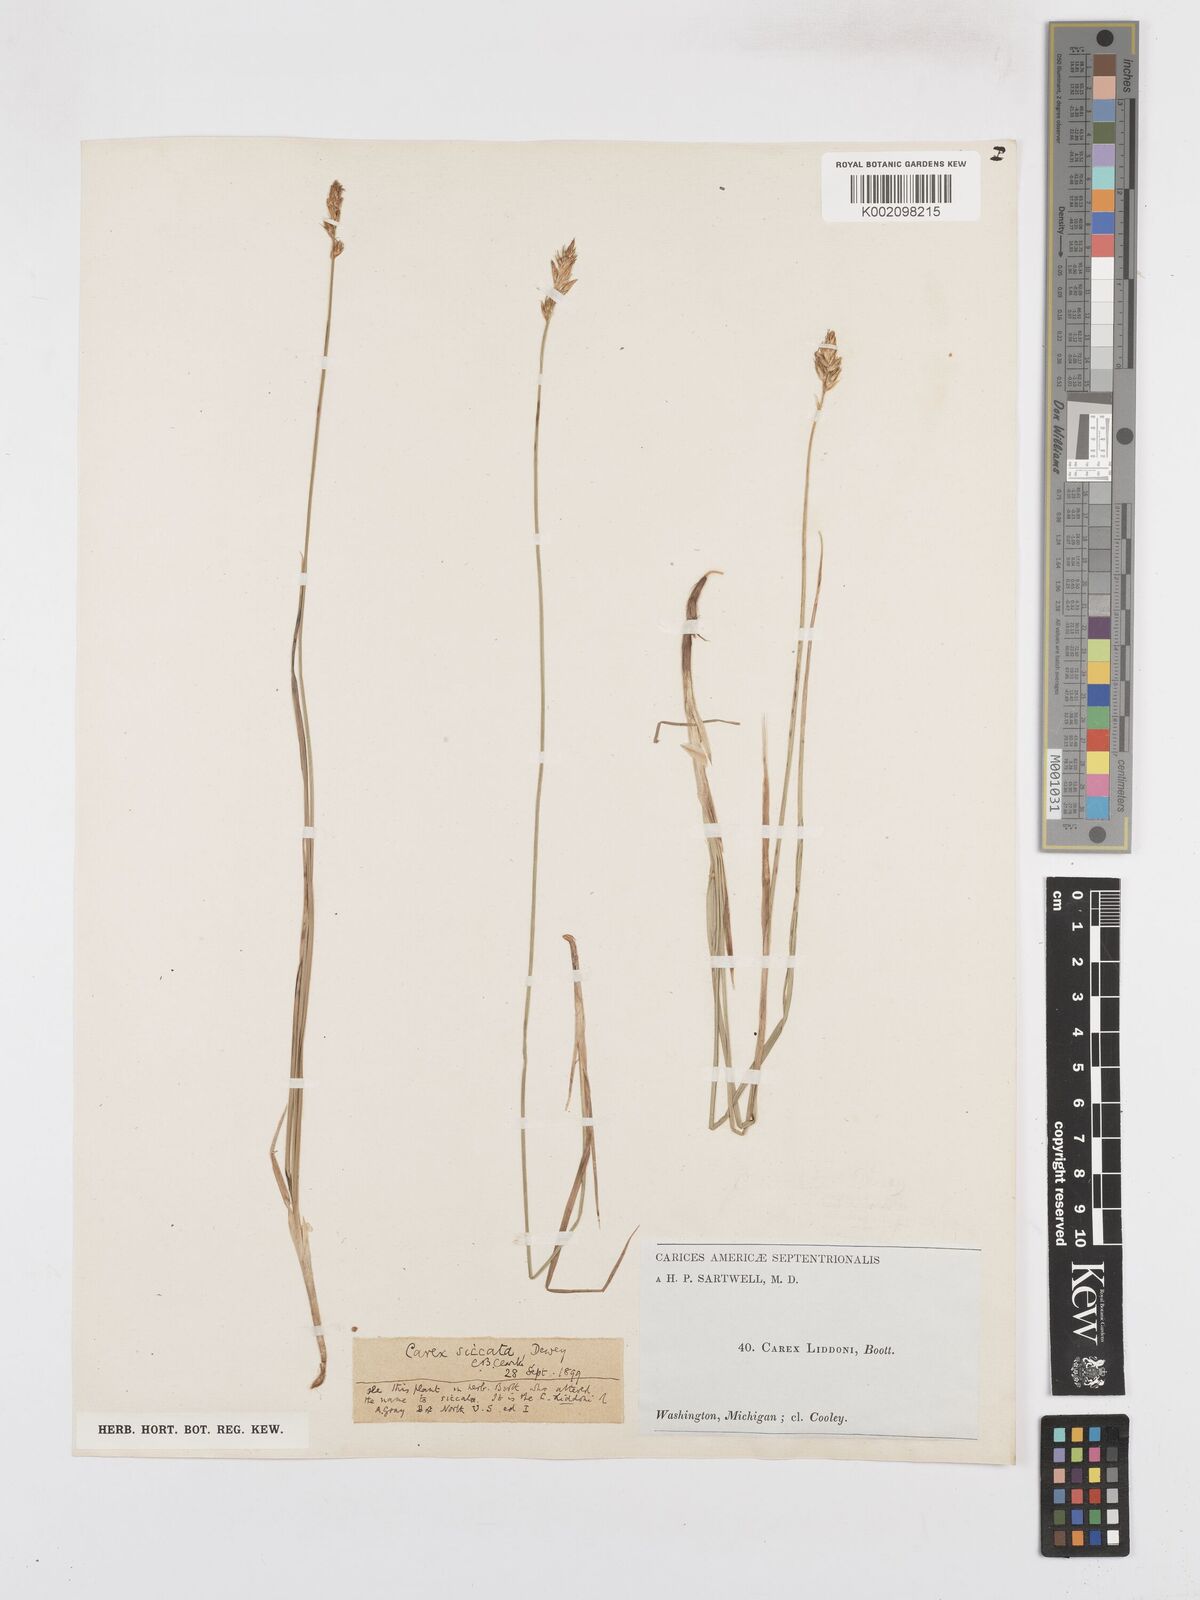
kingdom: Plantae
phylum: Tracheophyta
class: Liliopsida
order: Poales
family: Cyperaceae
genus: Carex
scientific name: Carex foenea
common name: Bronze sedge
